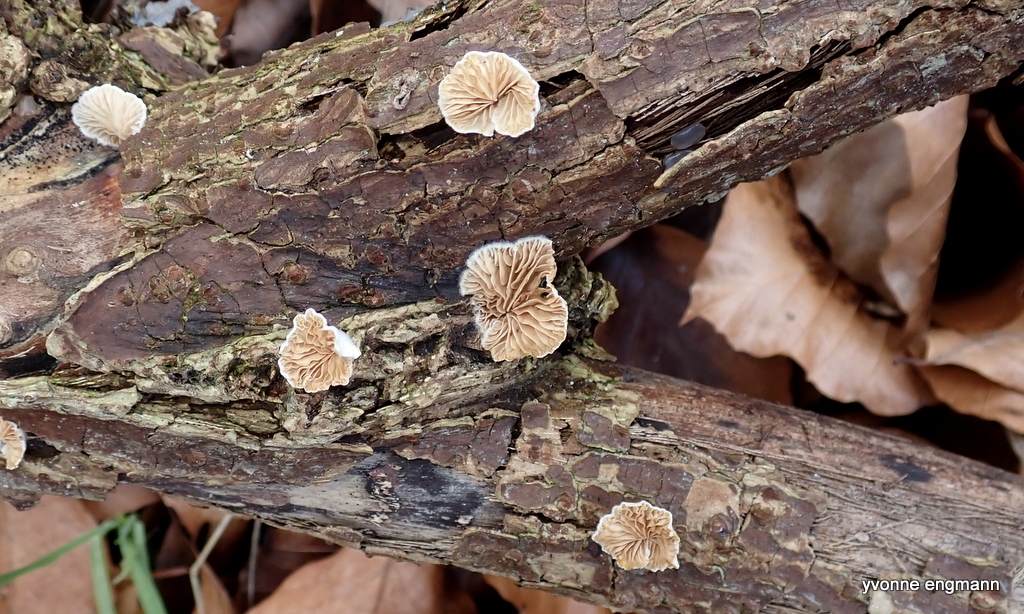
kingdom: Fungi
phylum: Basidiomycota
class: Agaricomycetes
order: Agaricales
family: Crepidotaceae
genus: Crepidotus
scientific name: Crepidotus
